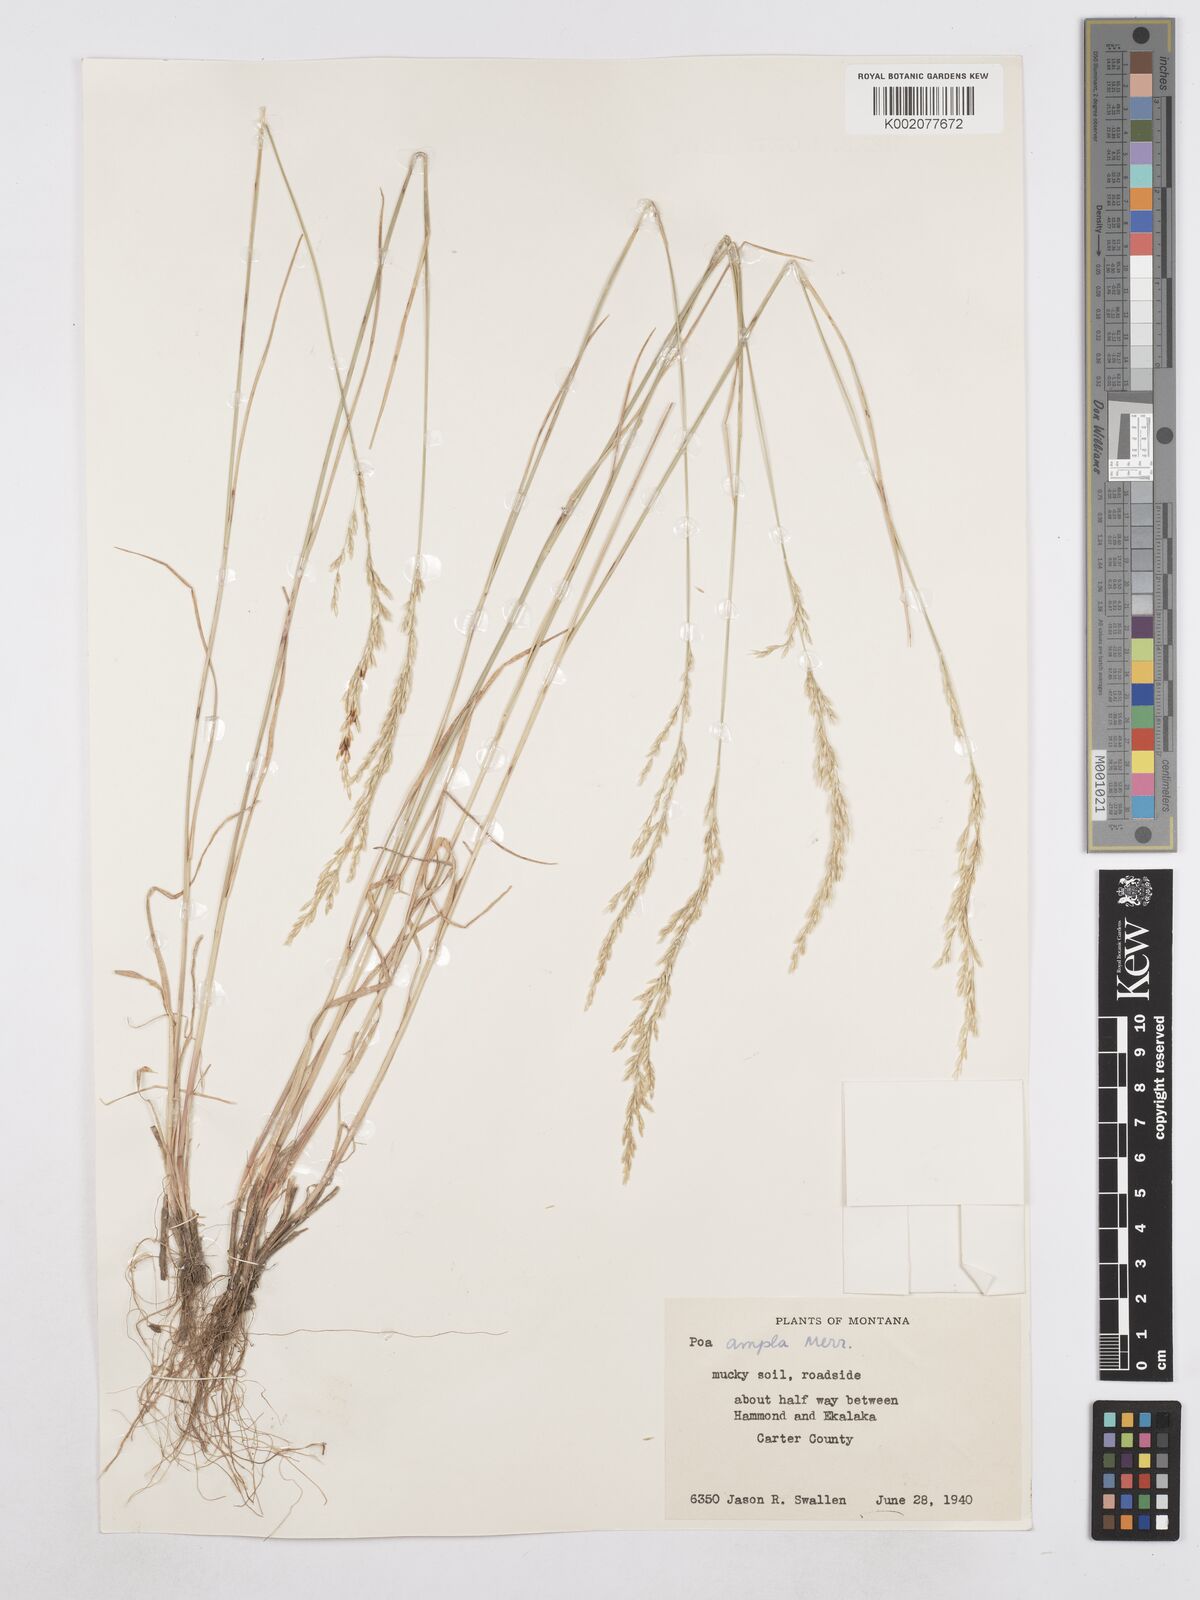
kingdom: Plantae
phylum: Tracheophyta
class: Liliopsida
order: Poales
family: Poaceae
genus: Poa
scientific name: Poa secunda
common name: Sandberg bluegrass
